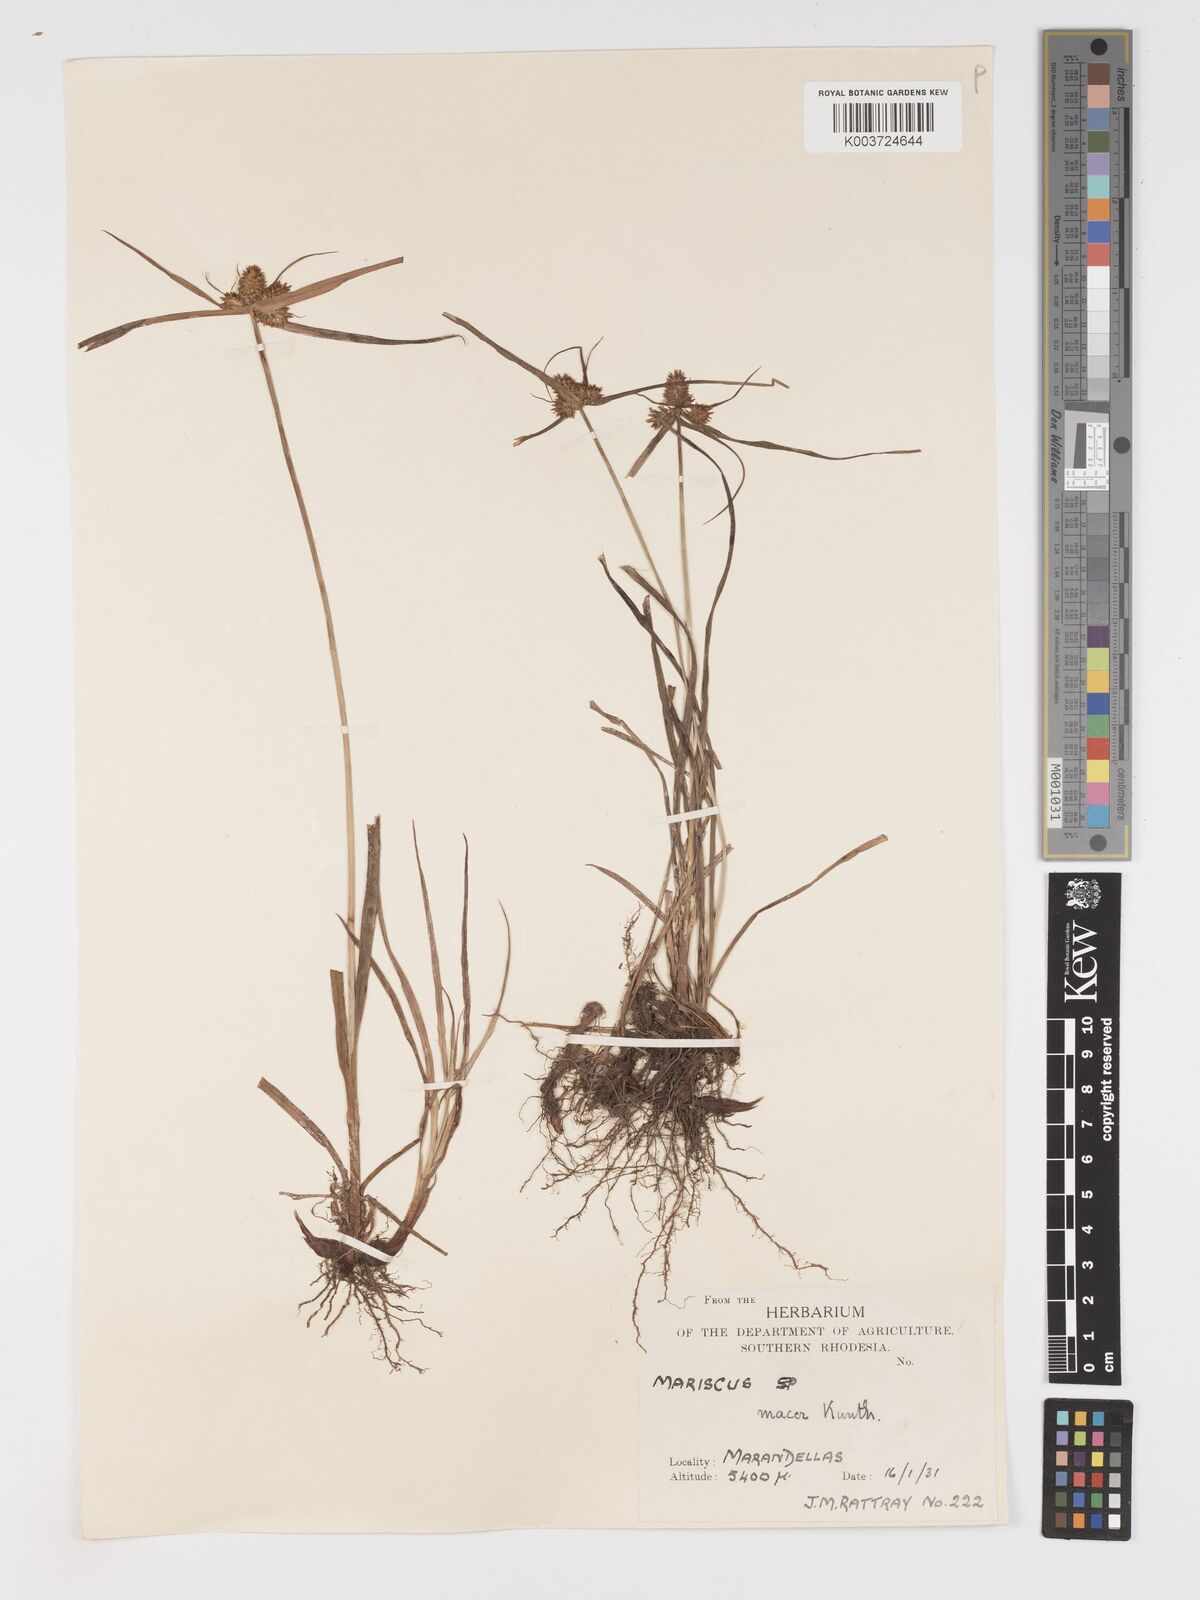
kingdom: Plantae
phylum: Tracheophyta
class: Liliopsida
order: Poales
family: Cyperaceae
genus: Cyperus
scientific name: Cyperus myrmecias
